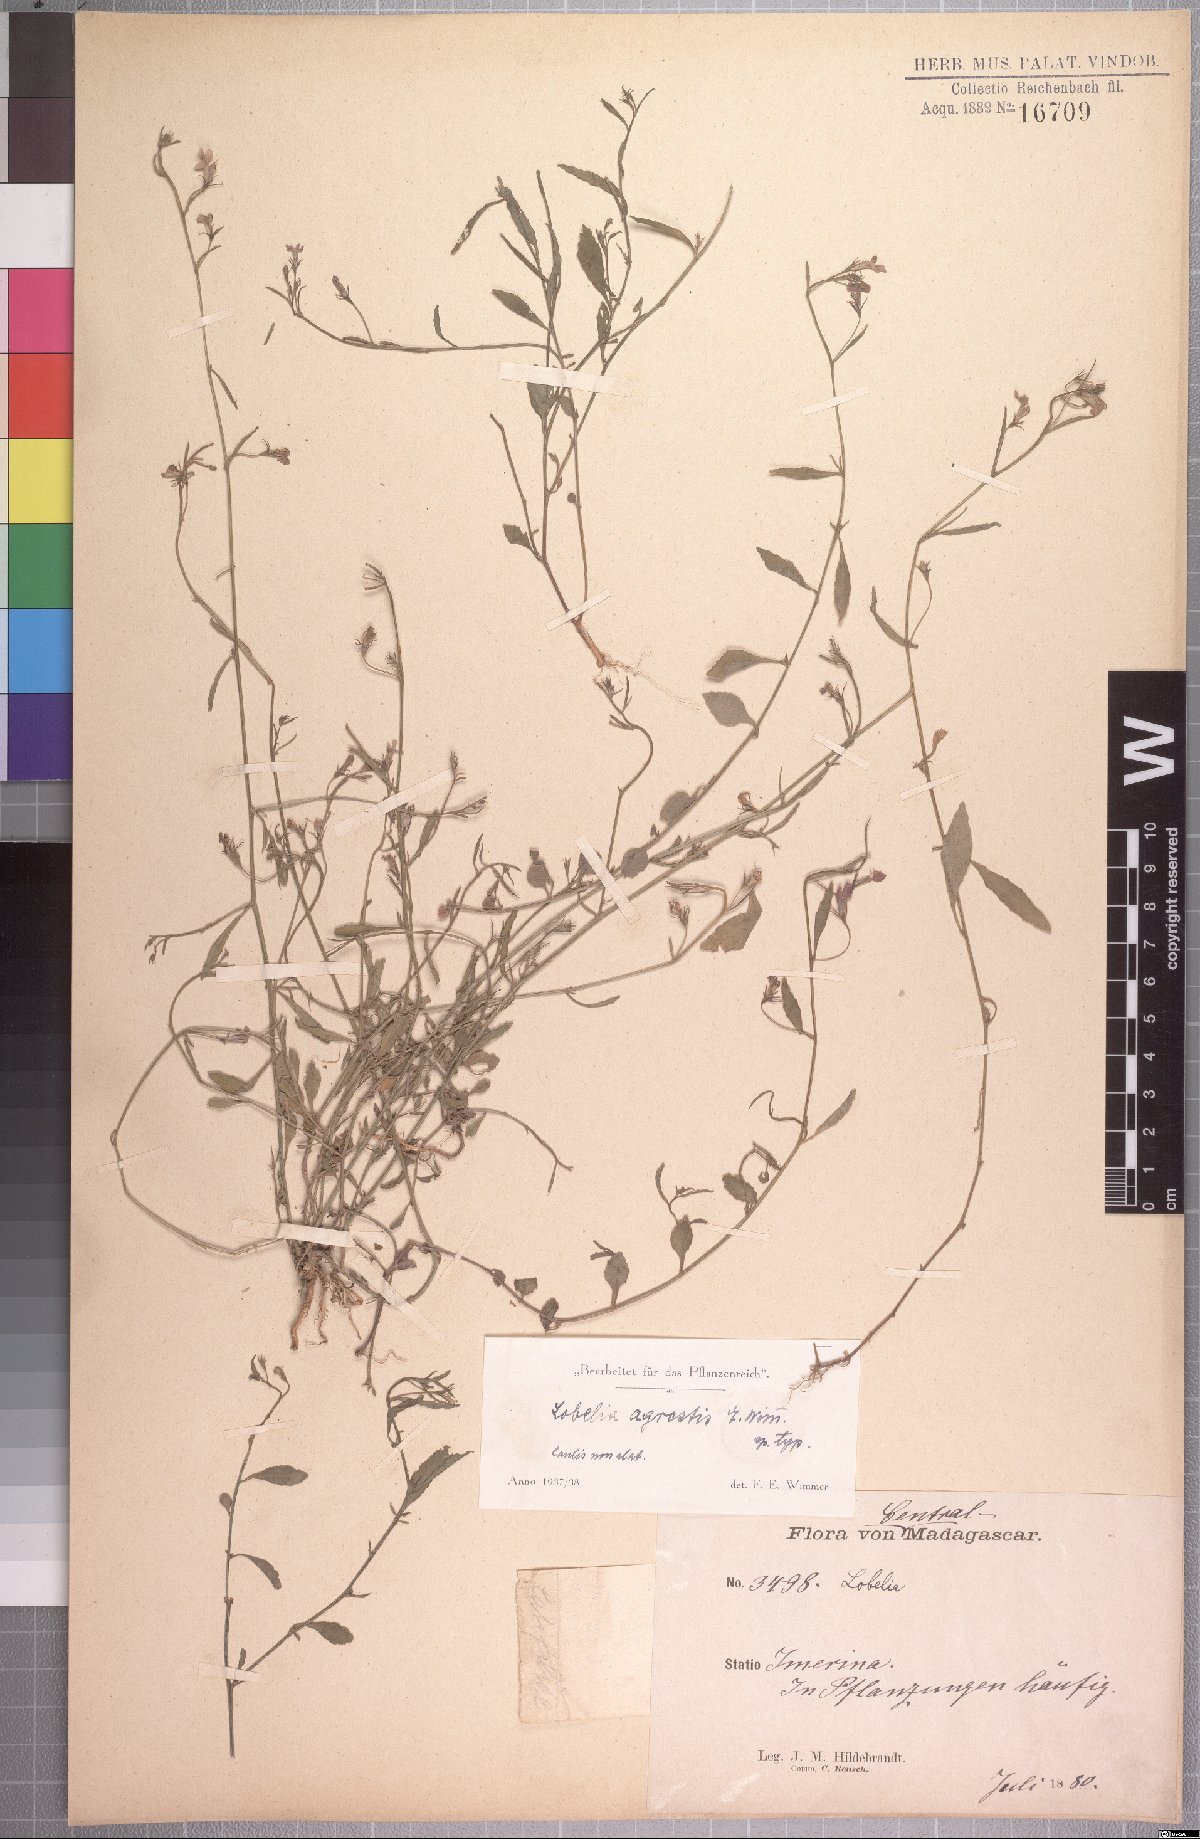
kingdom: Plantae
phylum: Tracheophyta
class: Magnoliopsida
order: Asterales
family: Campanulaceae
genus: Lobelia
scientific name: Lobelia agrestis
